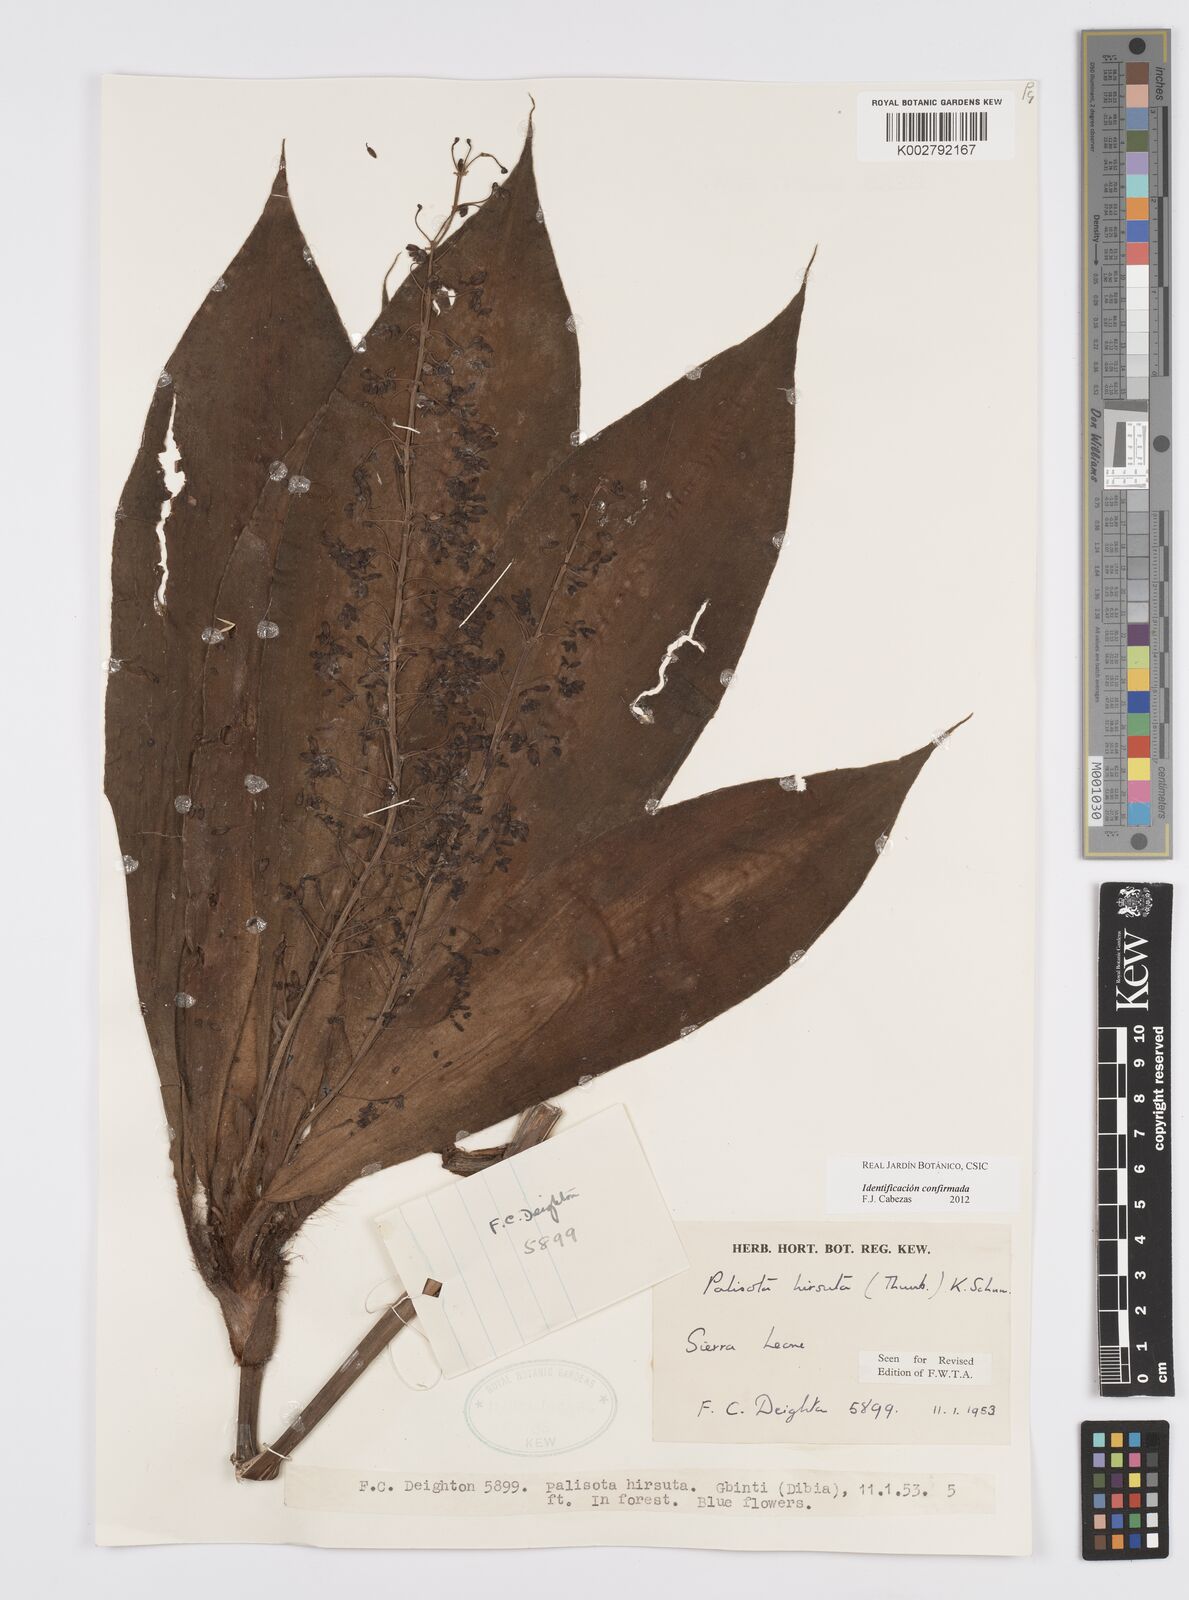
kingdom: Plantae
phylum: Tracheophyta
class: Liliopsida
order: Commelinales
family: Commelinaceae
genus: Palisota
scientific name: Palisota hirsuta
